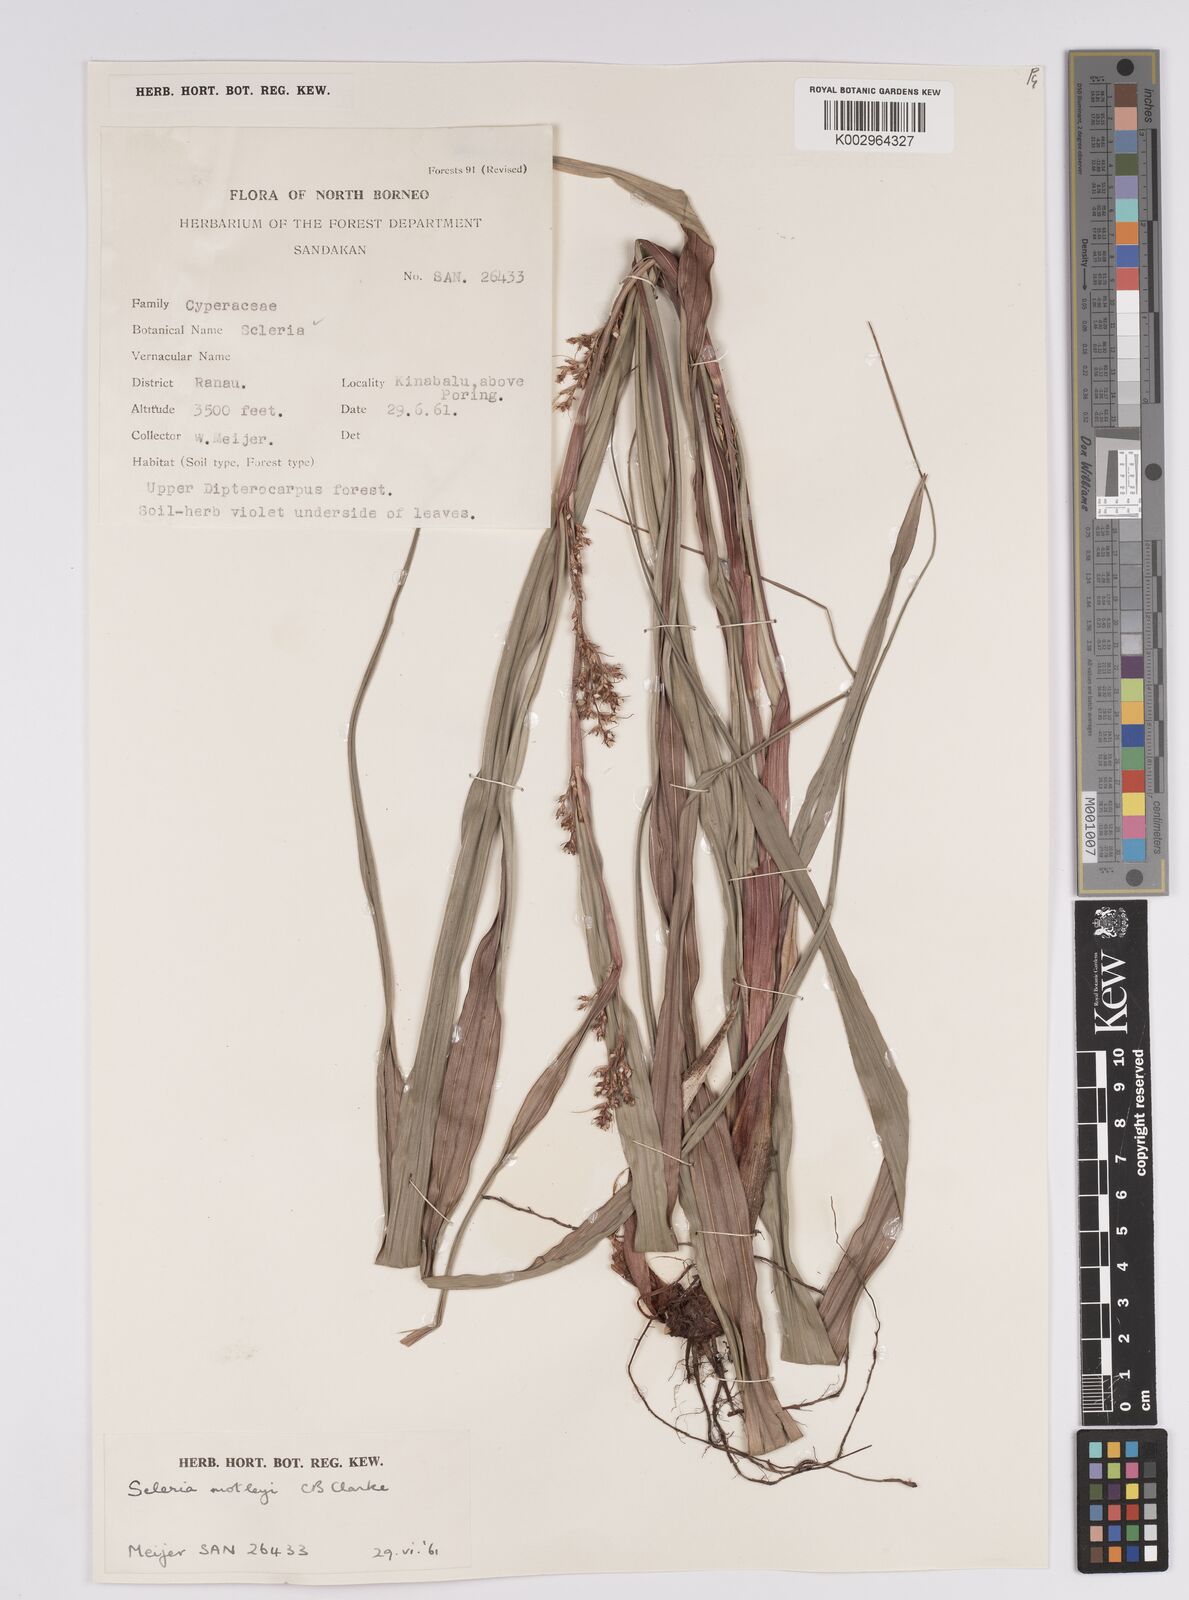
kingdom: Plantae
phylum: Tracheophyta
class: Liliopsida
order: Poales
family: Cyperaceae
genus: Scleria
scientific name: Scleria motleyi
